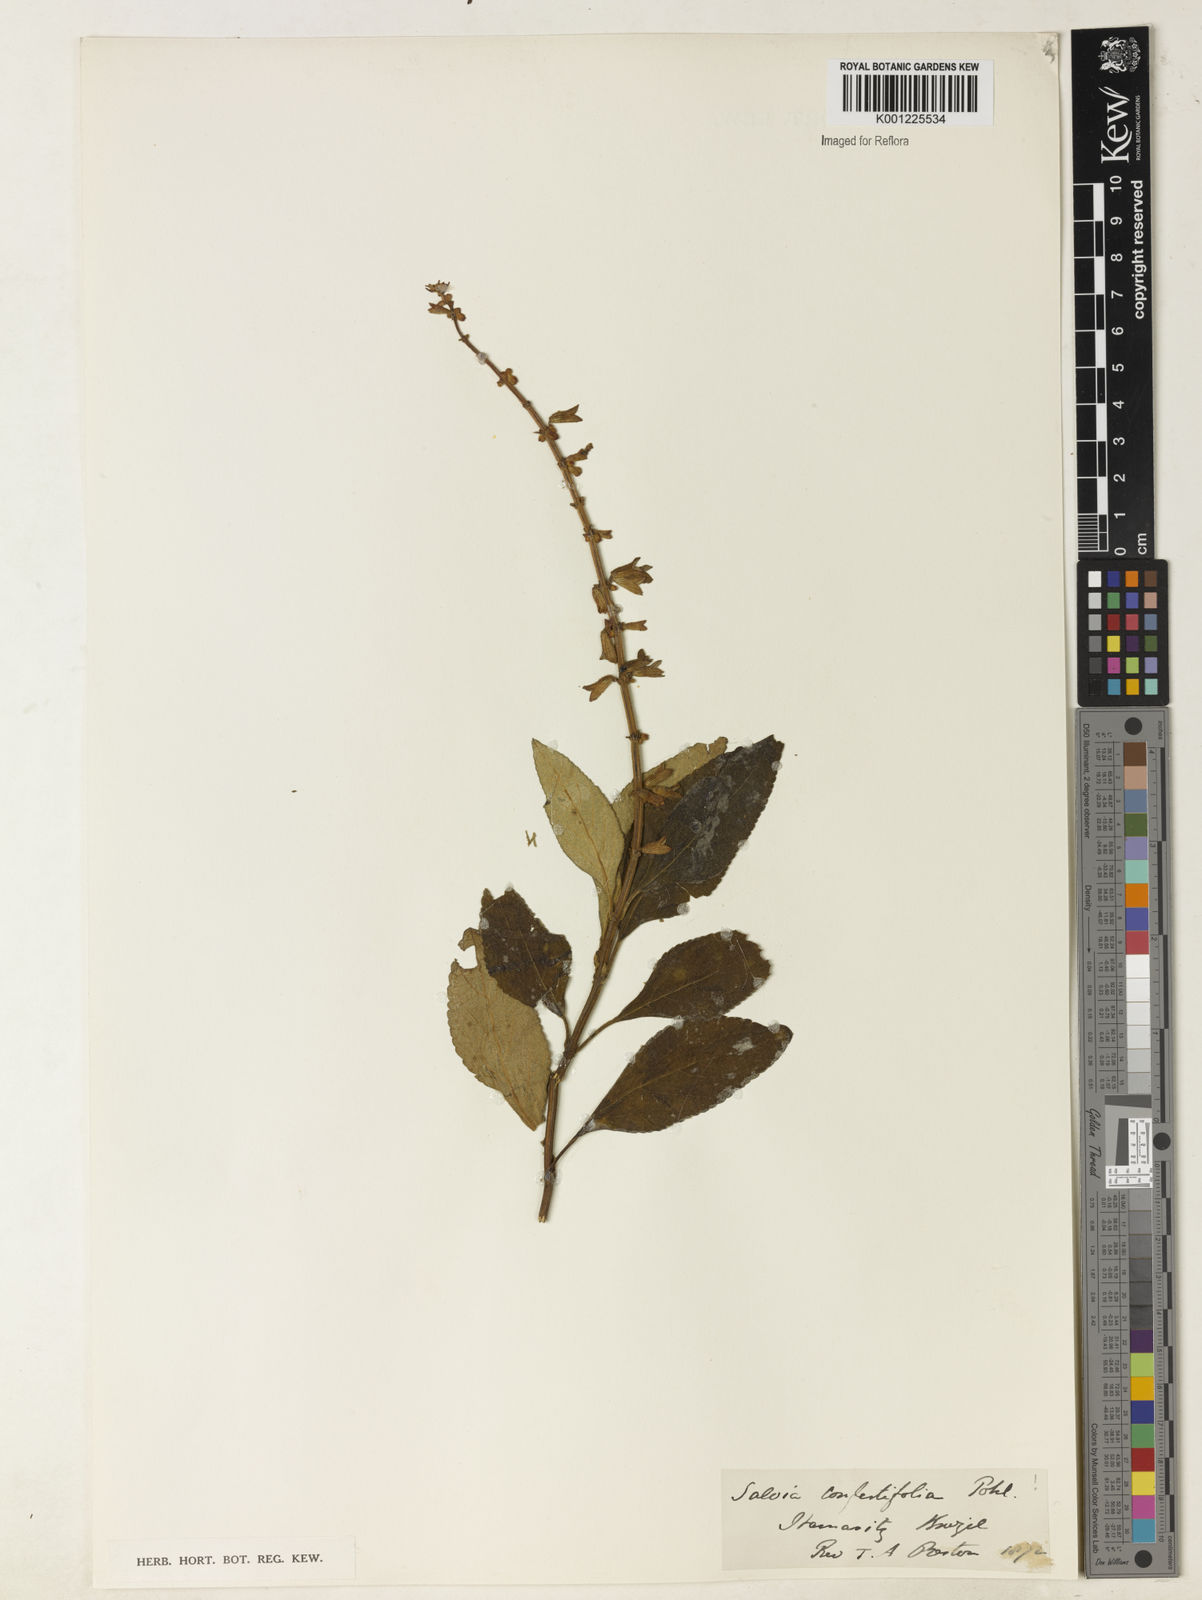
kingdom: Plantae
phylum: Tracheophyta
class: Magnoliopsida
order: Lamiales
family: Lamiaceae
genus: Salvia
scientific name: Salvia confertiflora
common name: Sabra-spike sage
